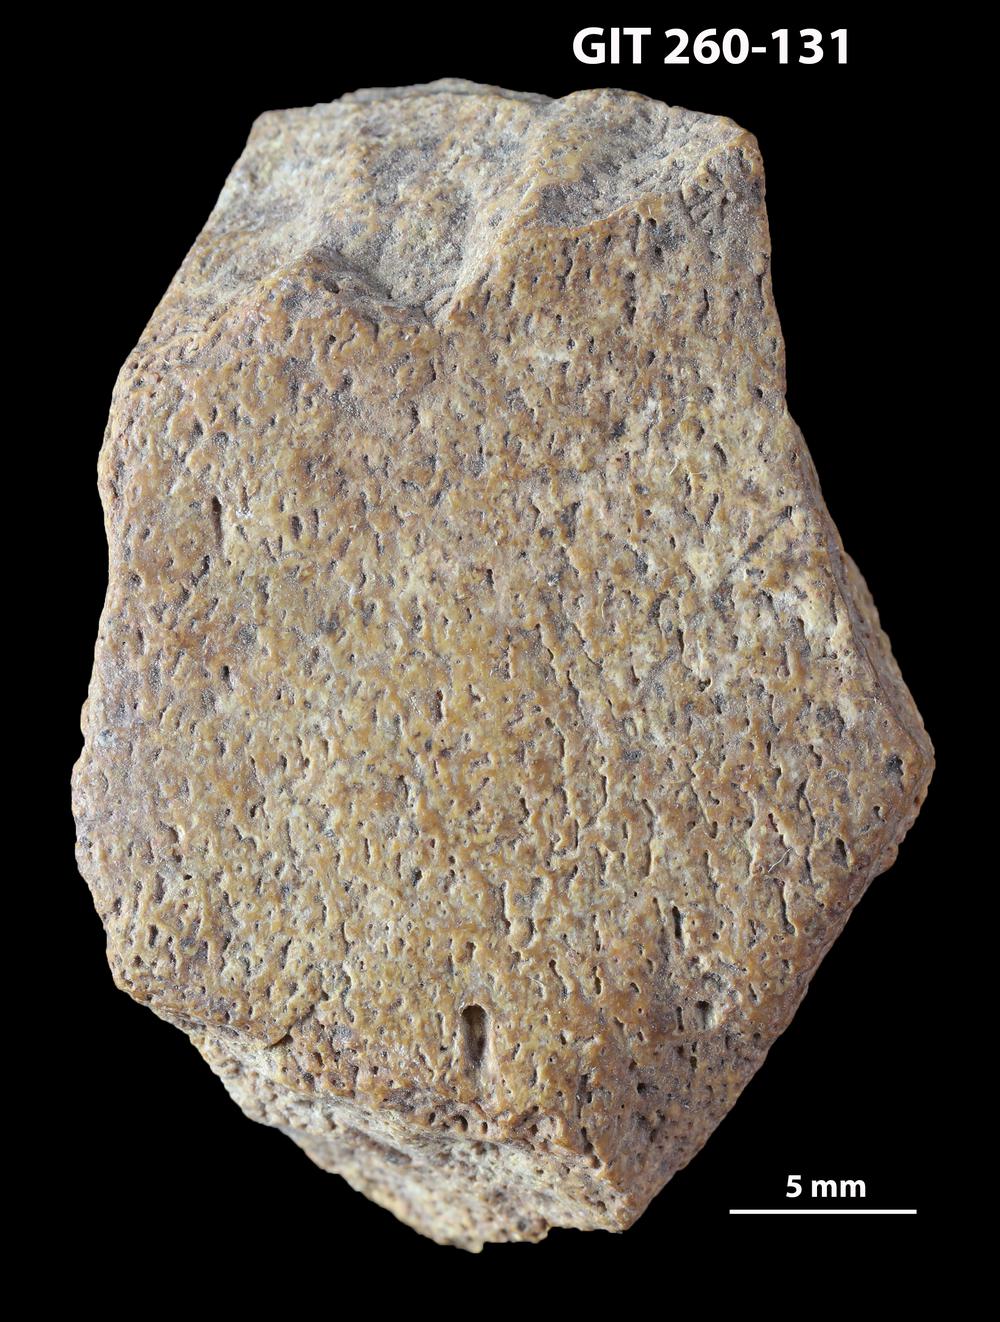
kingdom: Animalia
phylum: Chordata
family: Homostiidae
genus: Homostius
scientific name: Homostius
